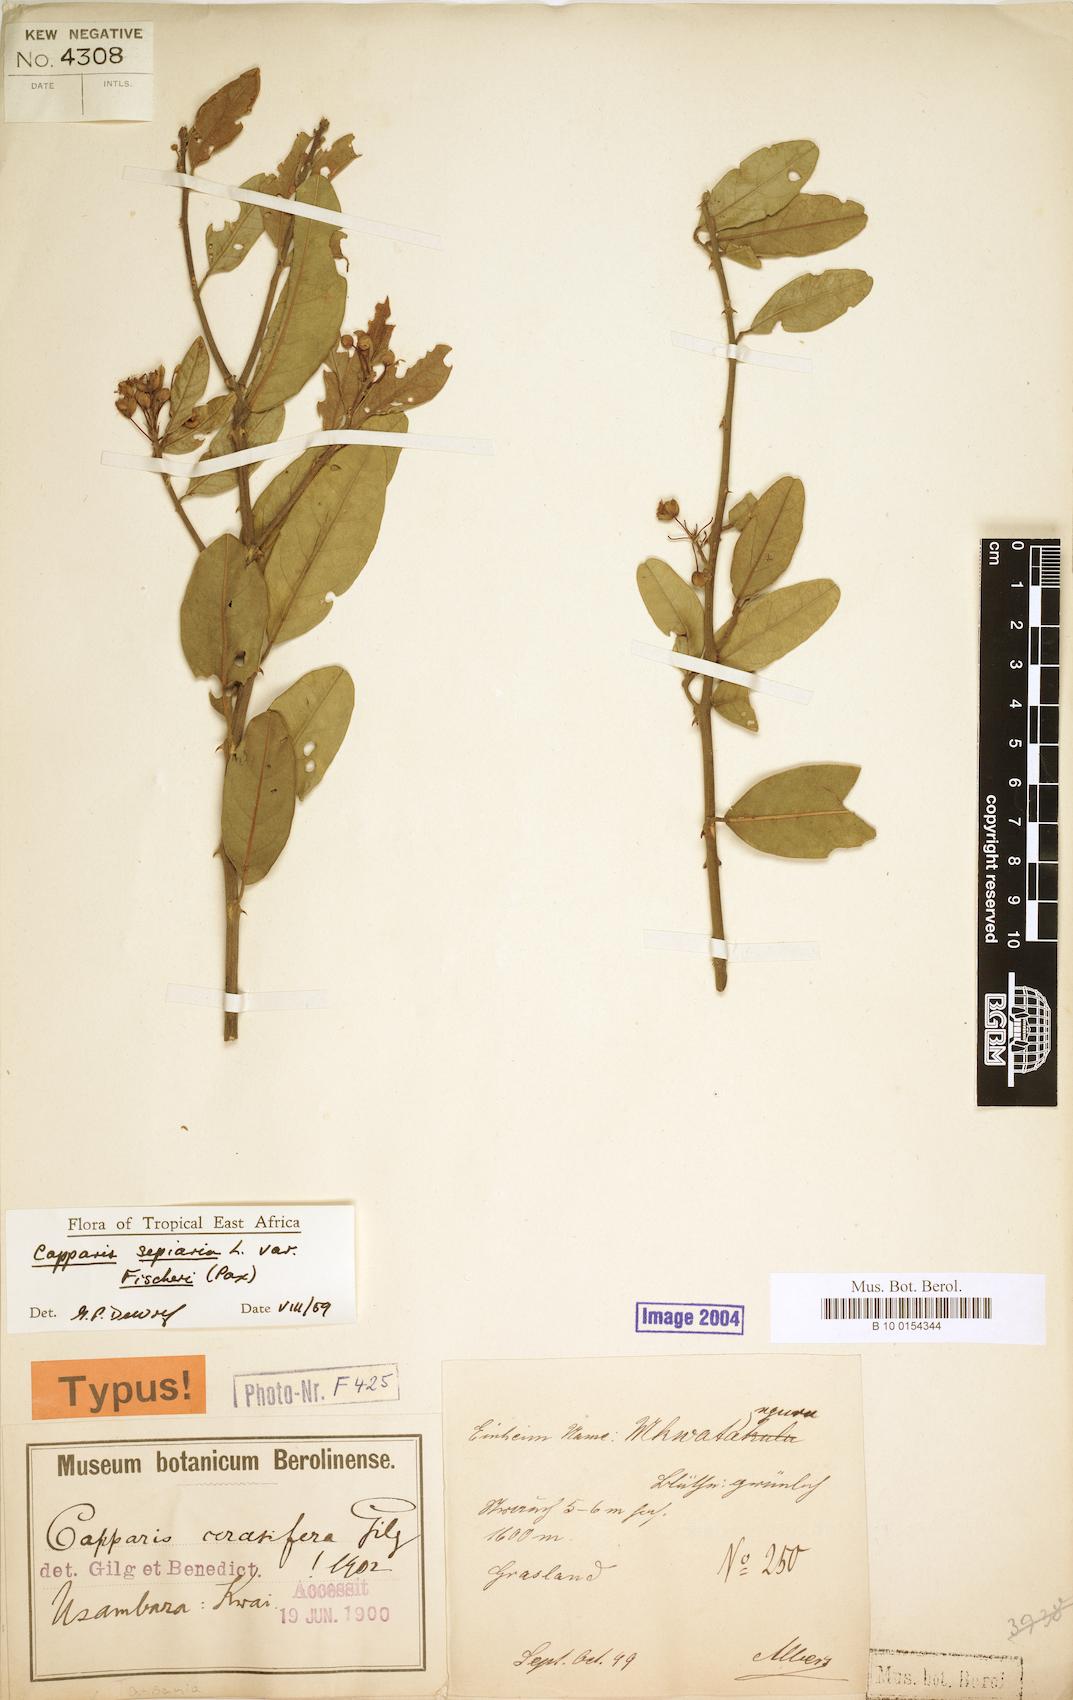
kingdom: Plantae
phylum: Tracheophyta
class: Magnoliopsida
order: Brassicales
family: Capparaceae
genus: Capparis
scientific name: Capparis sepiaria
